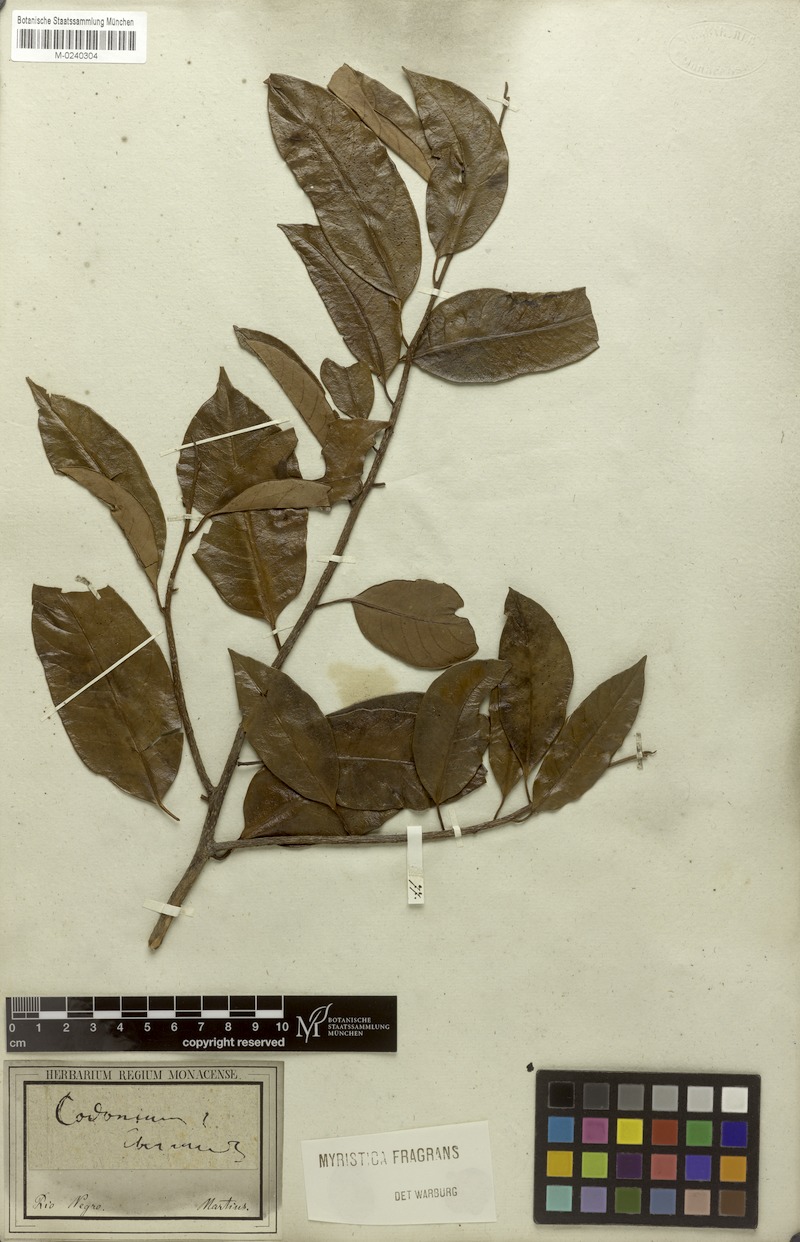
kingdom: Plantae
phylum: Tracheophyta
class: Magnoliopsida
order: Magnoliales
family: Myristicaceae
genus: Myristica
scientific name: Myristica fragrans
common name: Nutmeg
